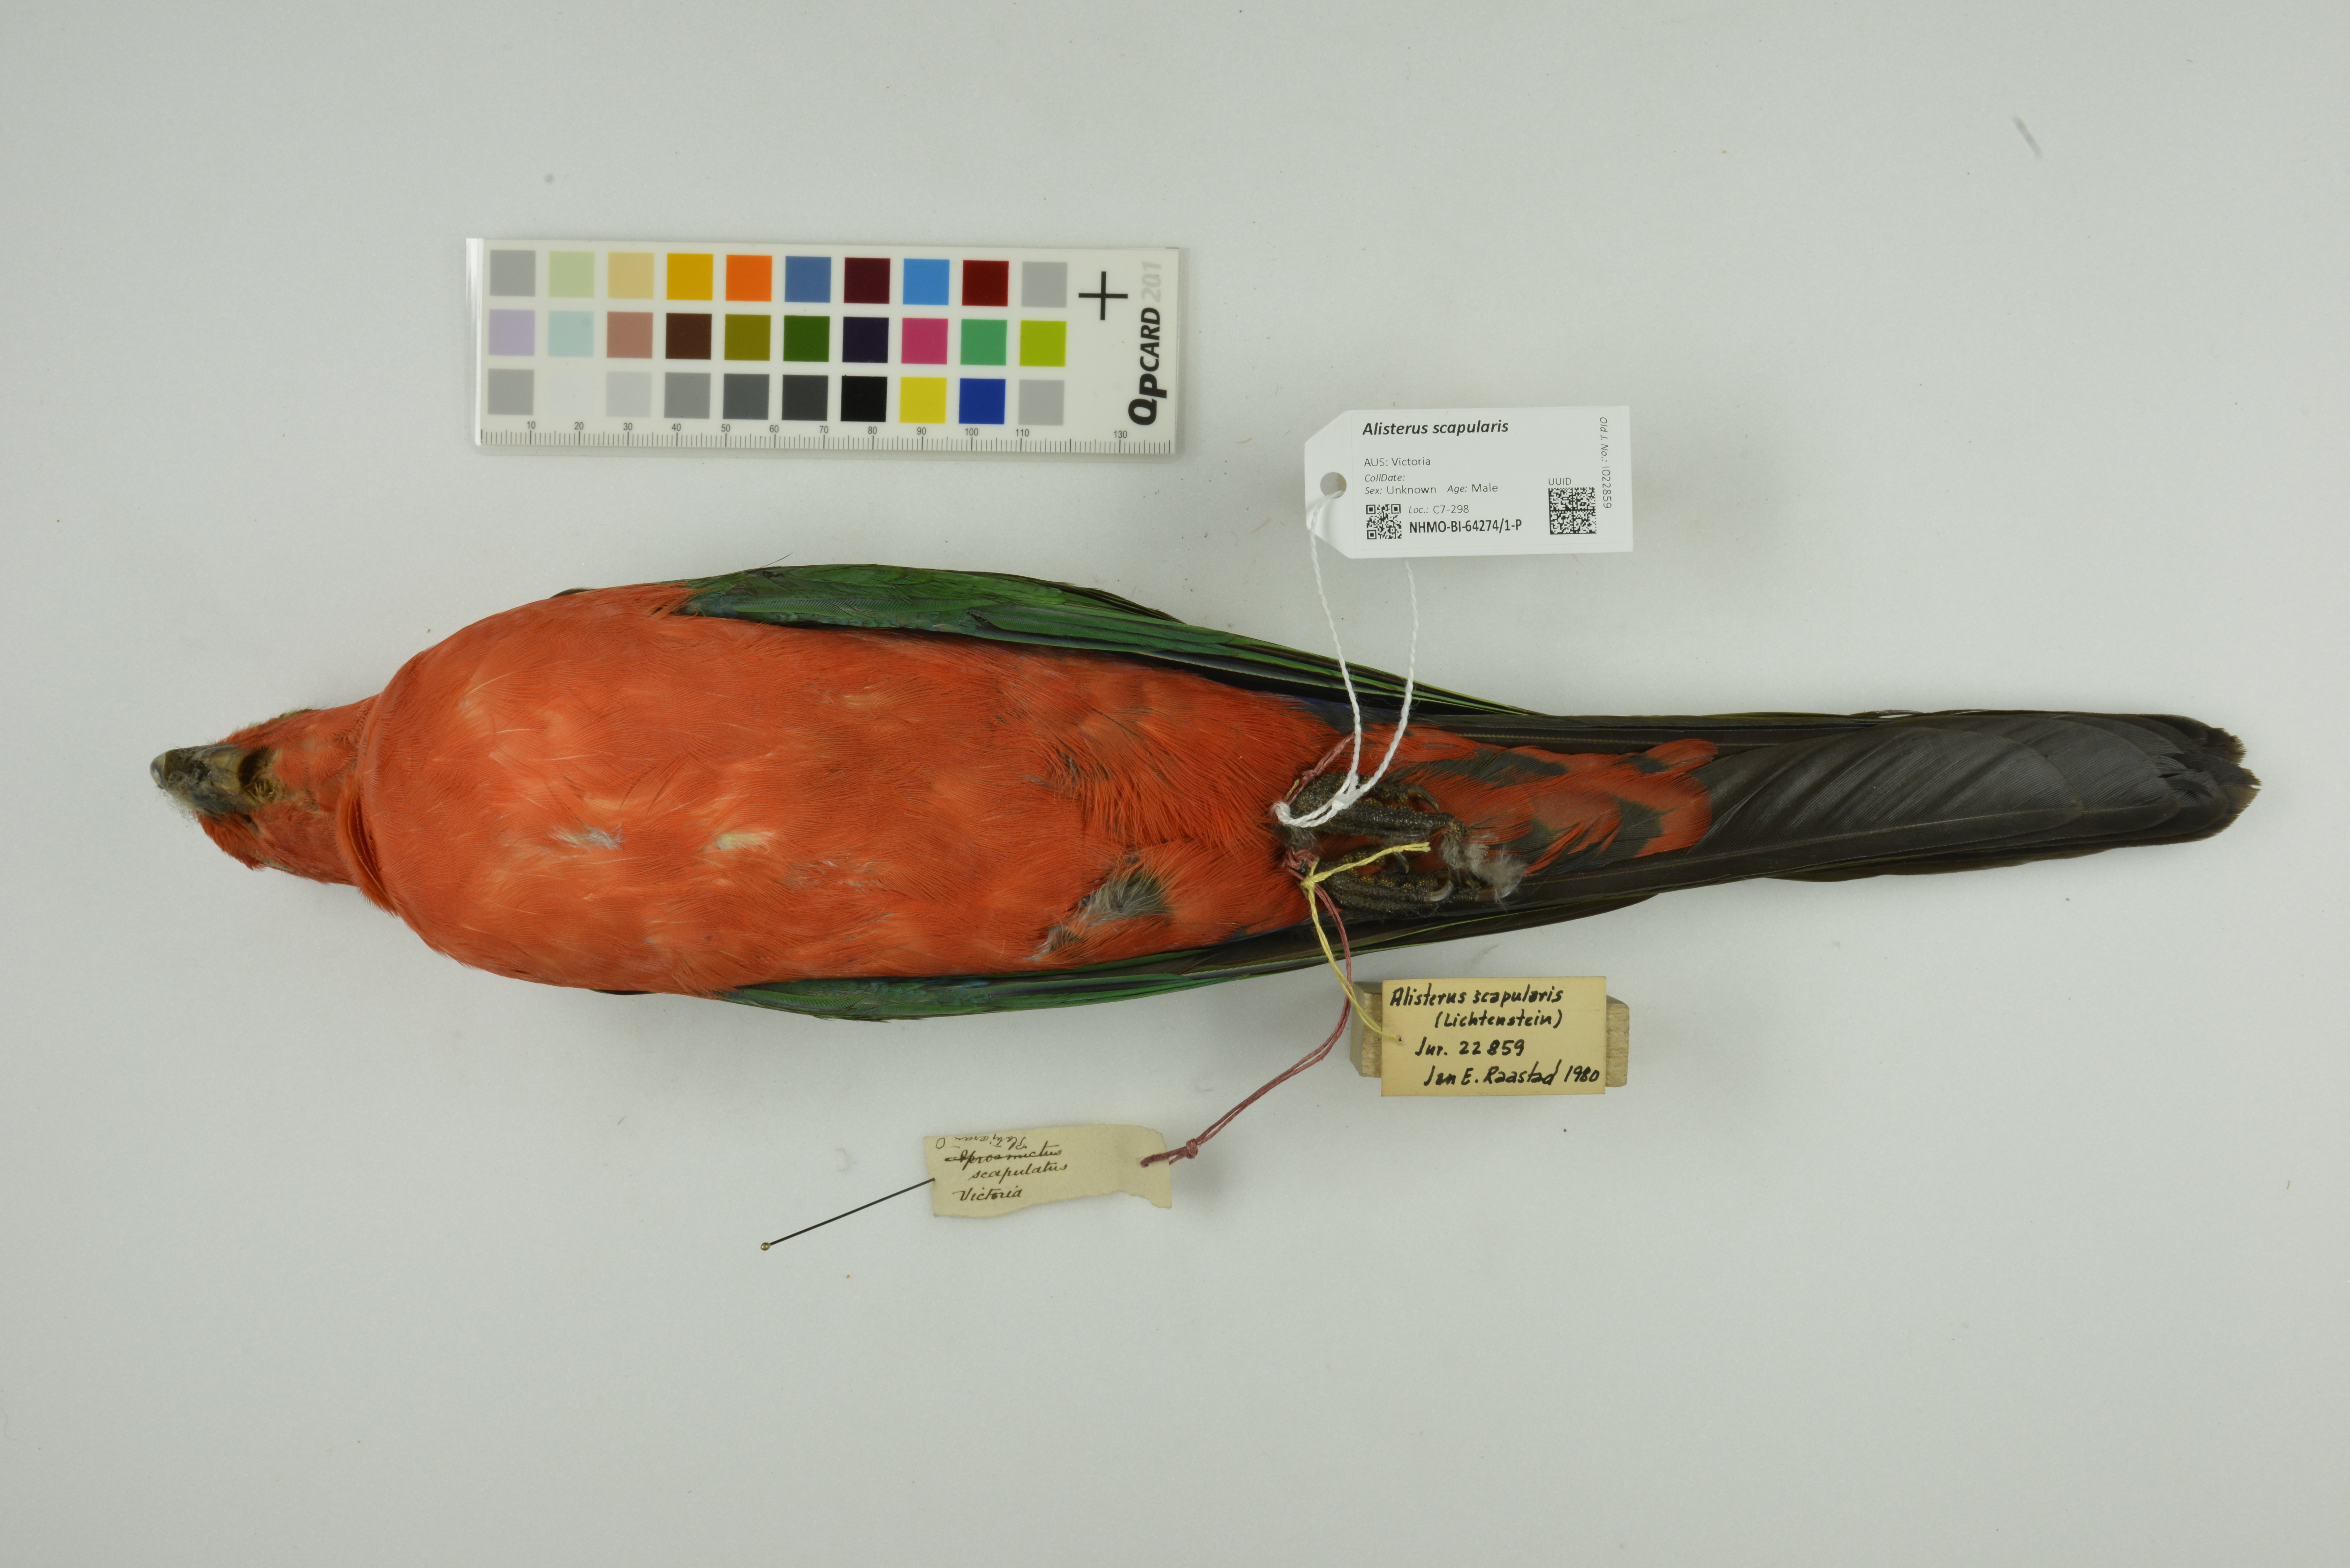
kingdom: Animalia
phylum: Chordata
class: Aves
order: Psittaciformes
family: Psittacidae
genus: Alisterus
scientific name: Alisterus scapularis
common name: Australian king parrot
